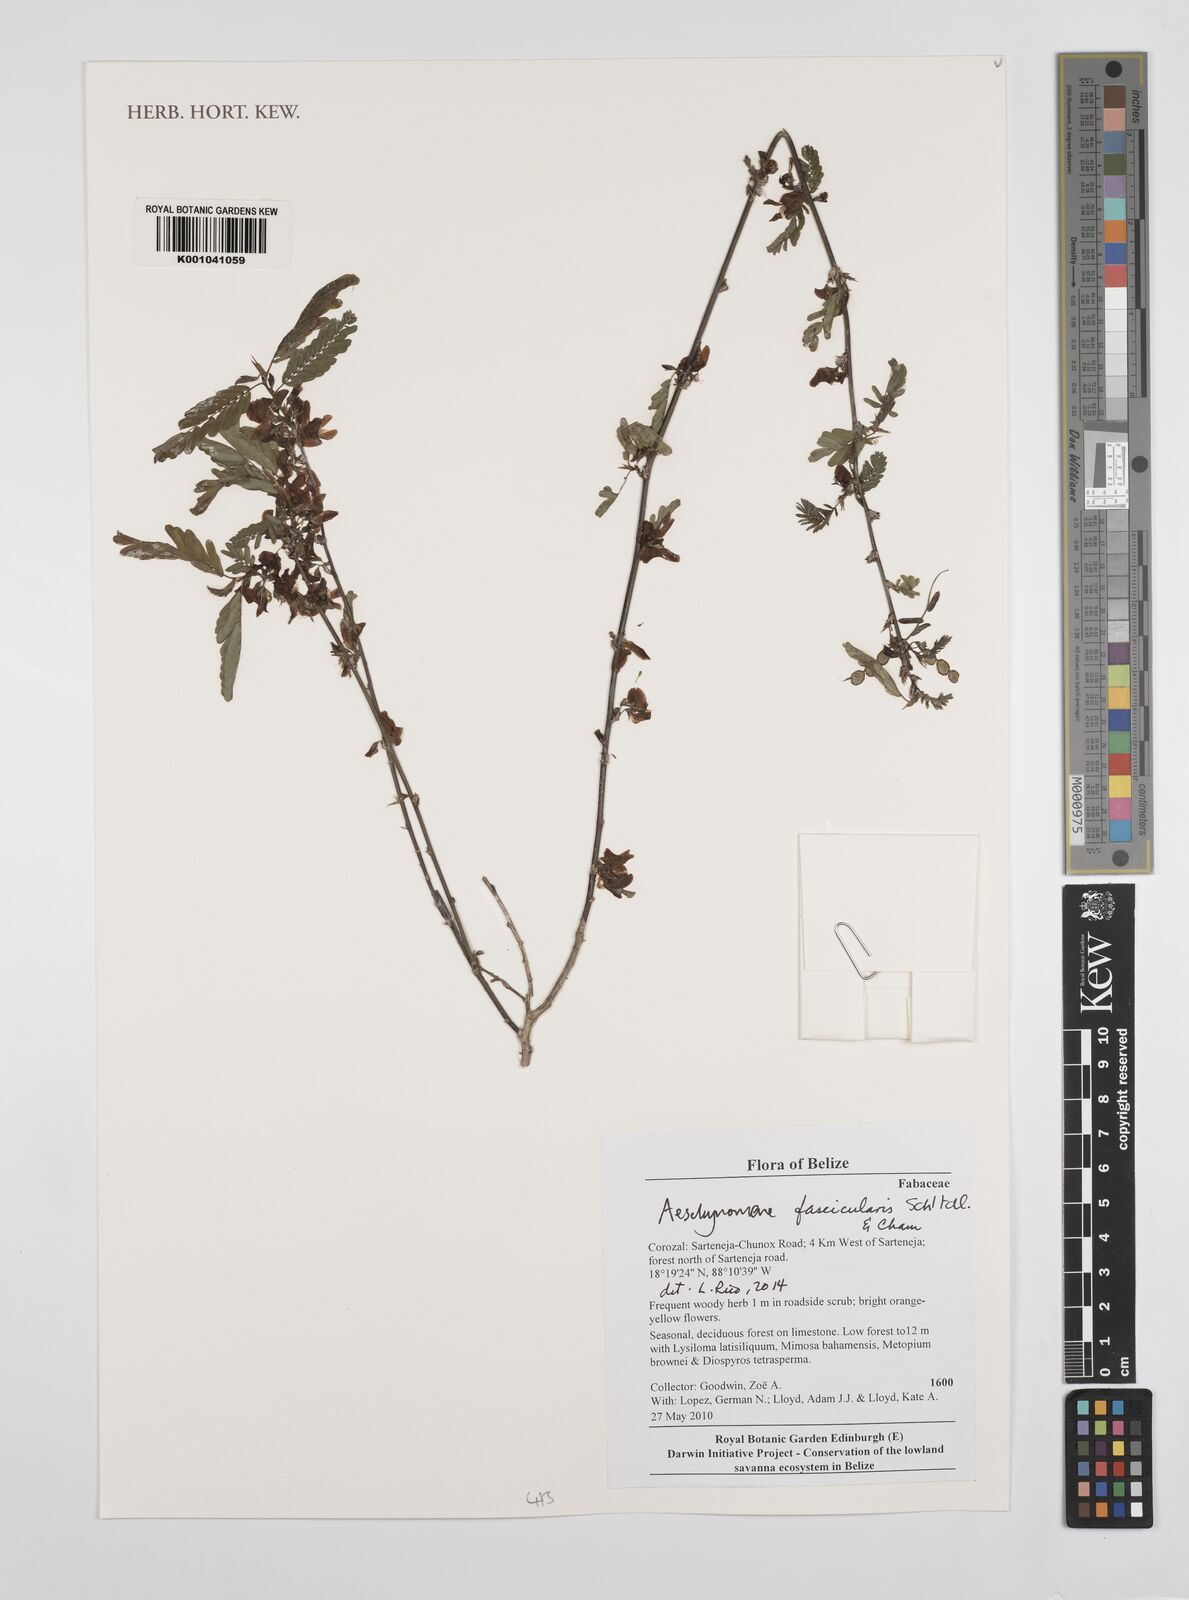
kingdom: Plantae
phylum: Tracheophyta
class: Magnoliopsida
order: Fabales
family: Fabaceae
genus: Ctenodon
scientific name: Ctenodon fascicularis
